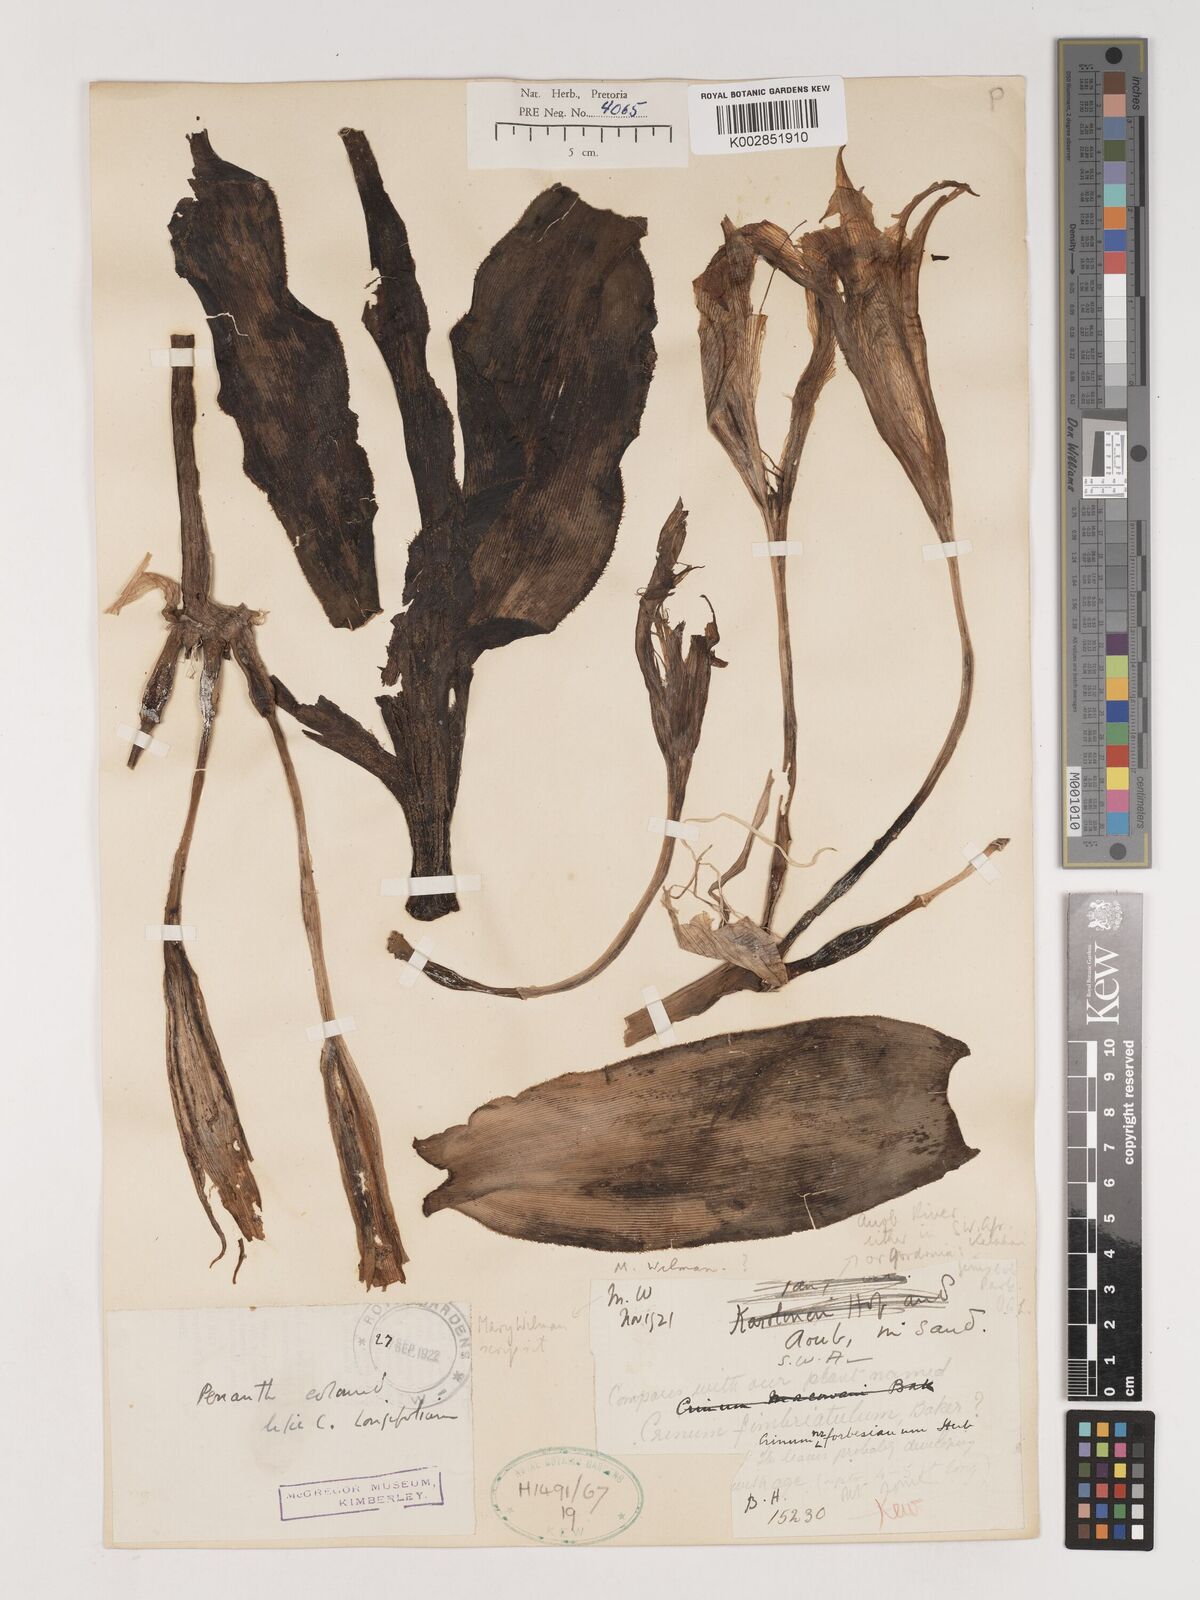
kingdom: Plantae
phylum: Tracheophyta
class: Liliopsida
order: Asparagales
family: Amaryllidaceae
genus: Crinum
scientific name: Crinum
